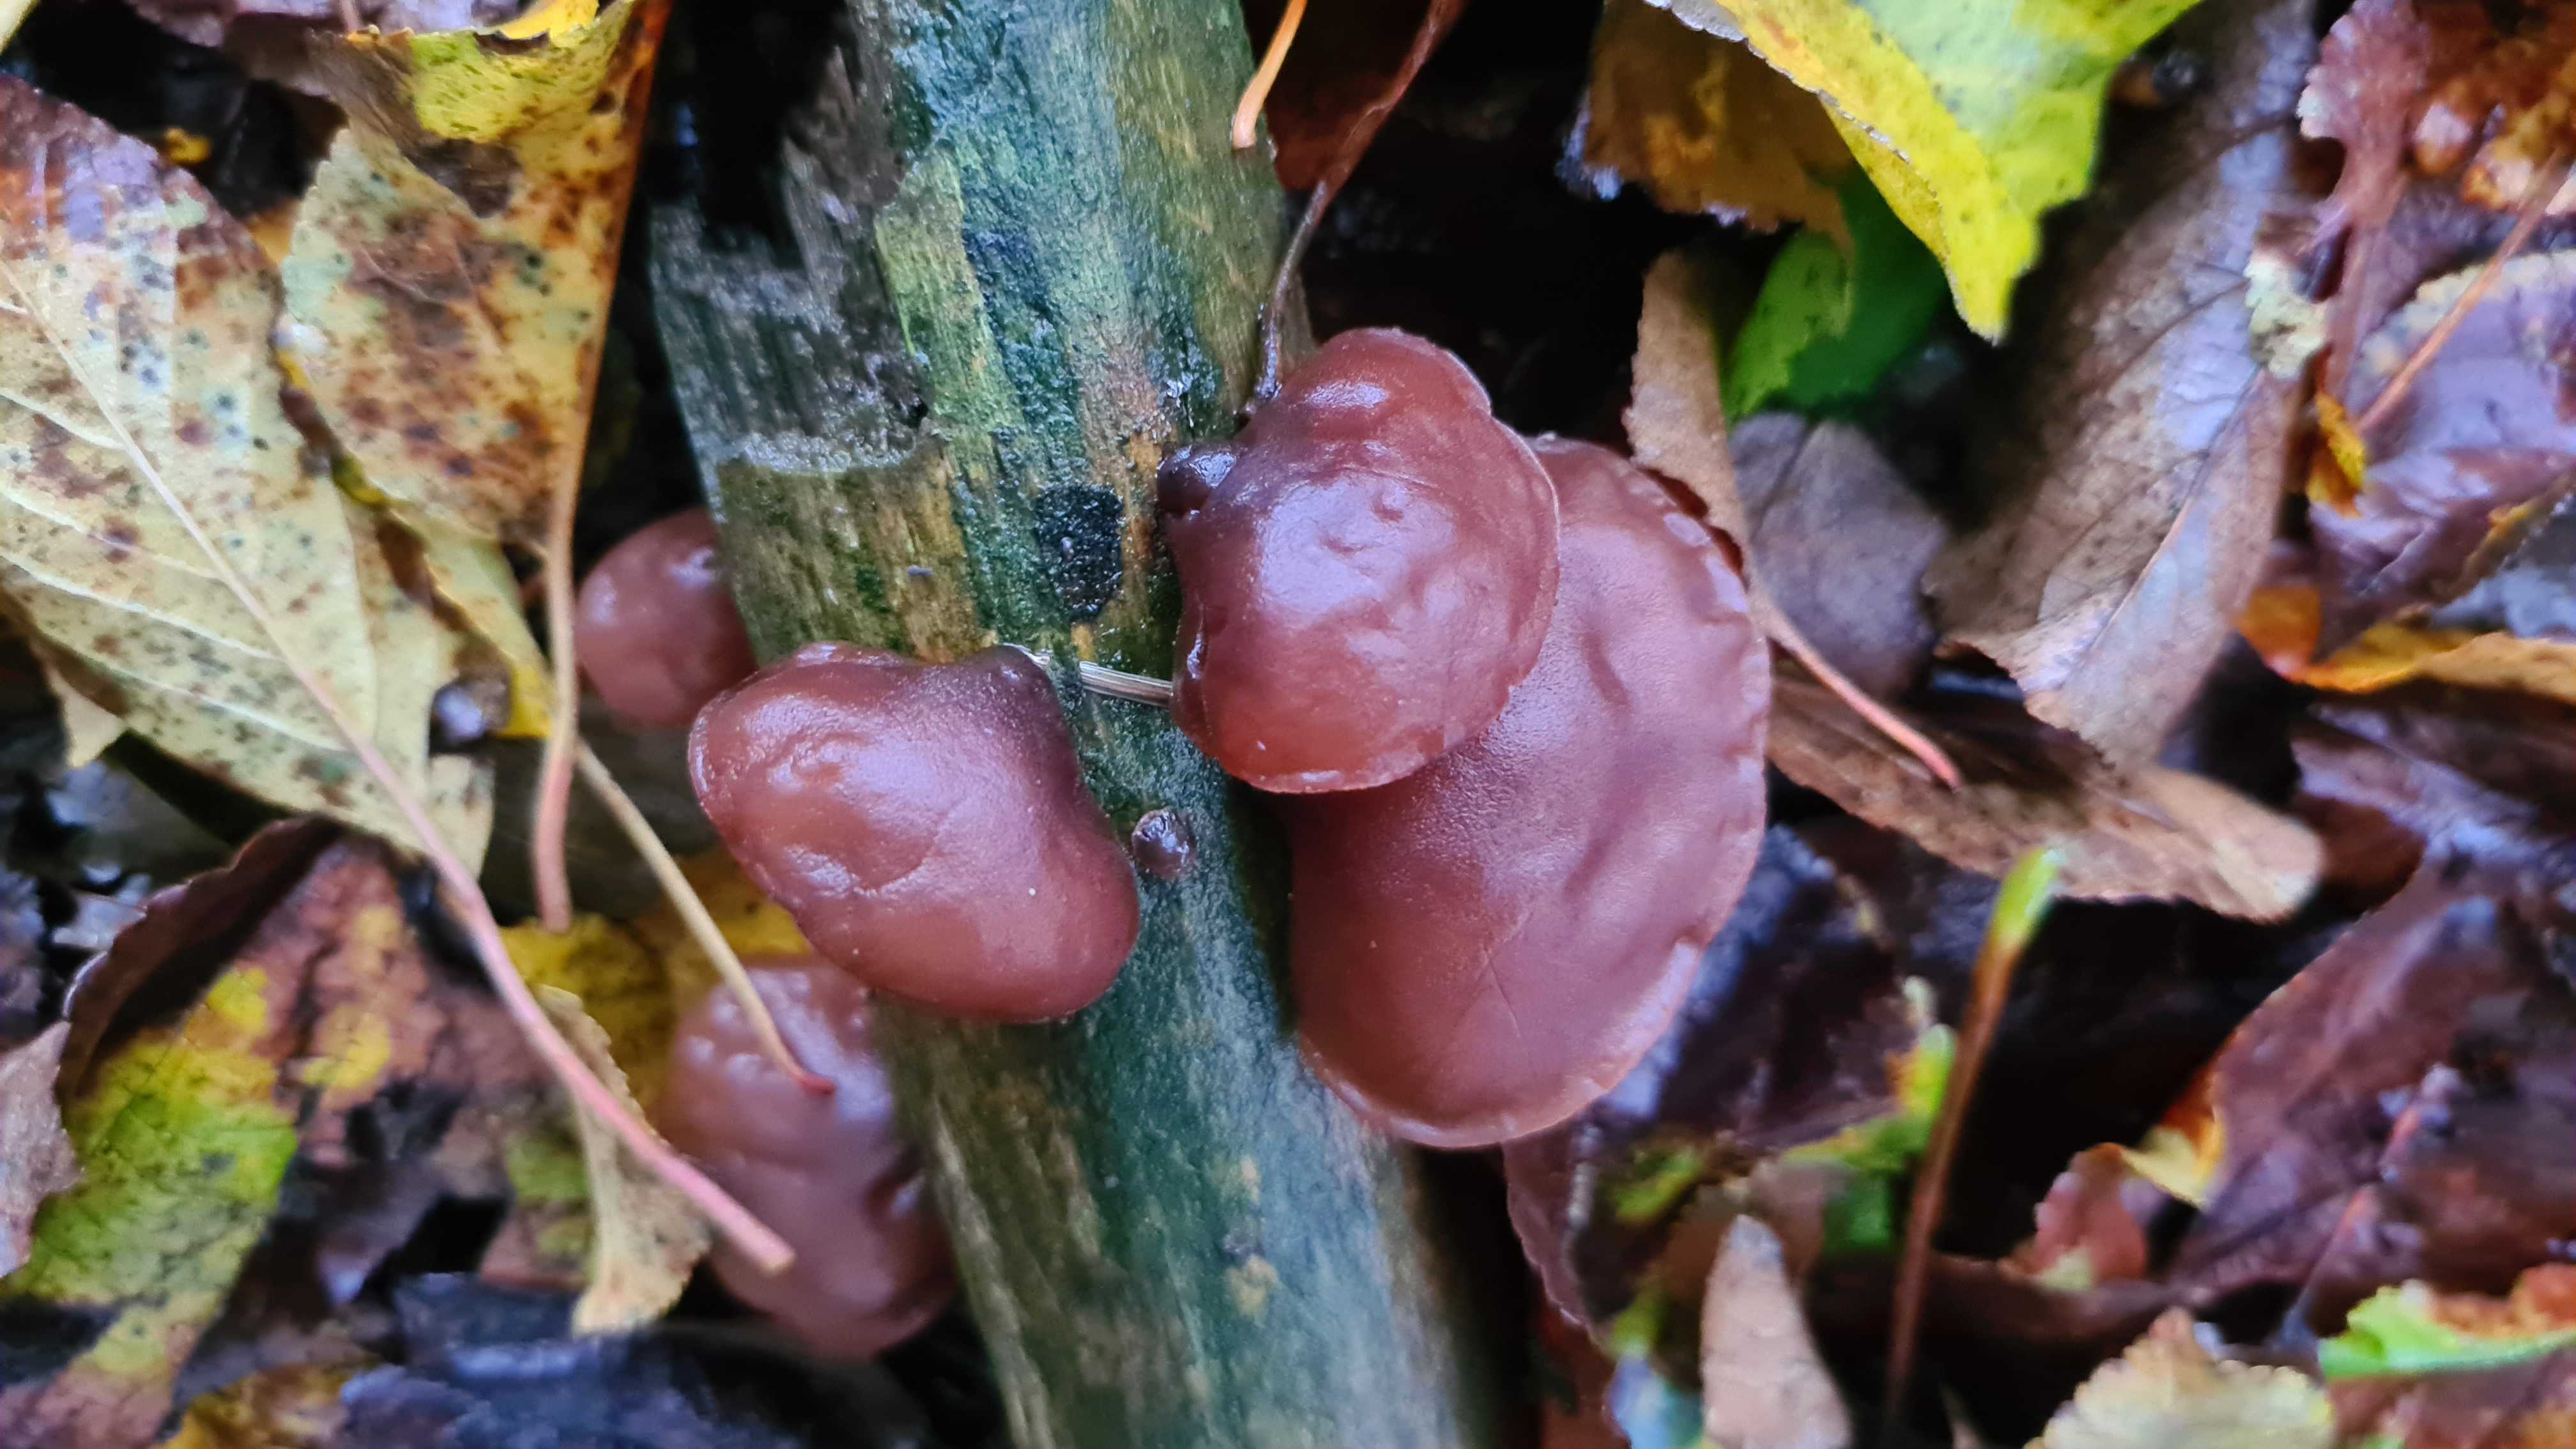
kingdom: Fungi
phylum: Basidiomycota
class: Agaricomycetes
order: Auriculariales
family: Auriculariaceae
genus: Auricularia
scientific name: Auricularia auricula-judae
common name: almindelig judasøre
